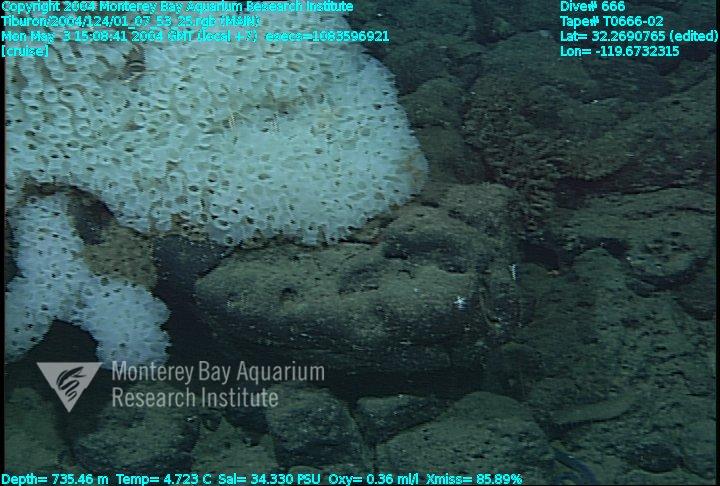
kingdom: Animalia
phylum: Porifera
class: Hexactinellida
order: Sceptrulophora
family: Farreidae
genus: Farrea
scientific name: Farrea occa
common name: Reversed glass sponge
